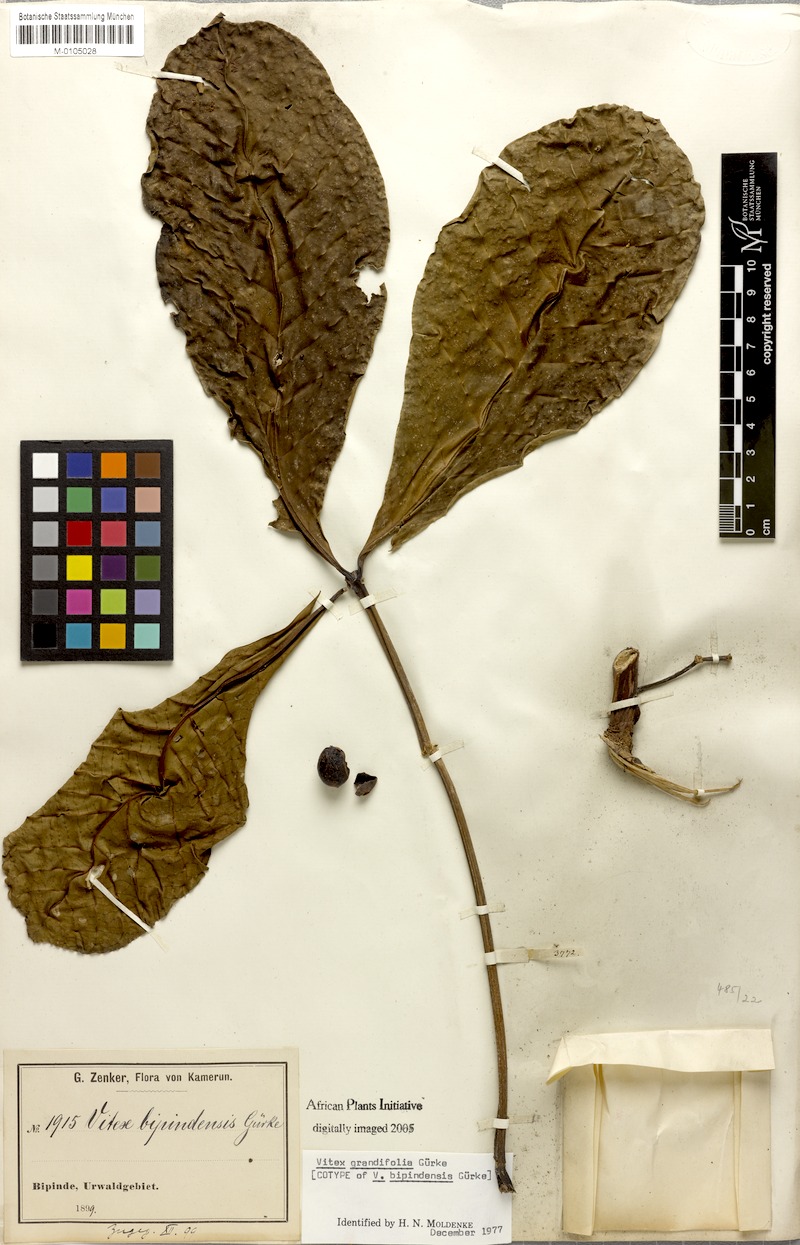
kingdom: Plantae
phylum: Tracheophyta
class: Magnoliopsida
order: Lamiales
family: Lamiaceae
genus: Vitex
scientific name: Vitex grandifolia
